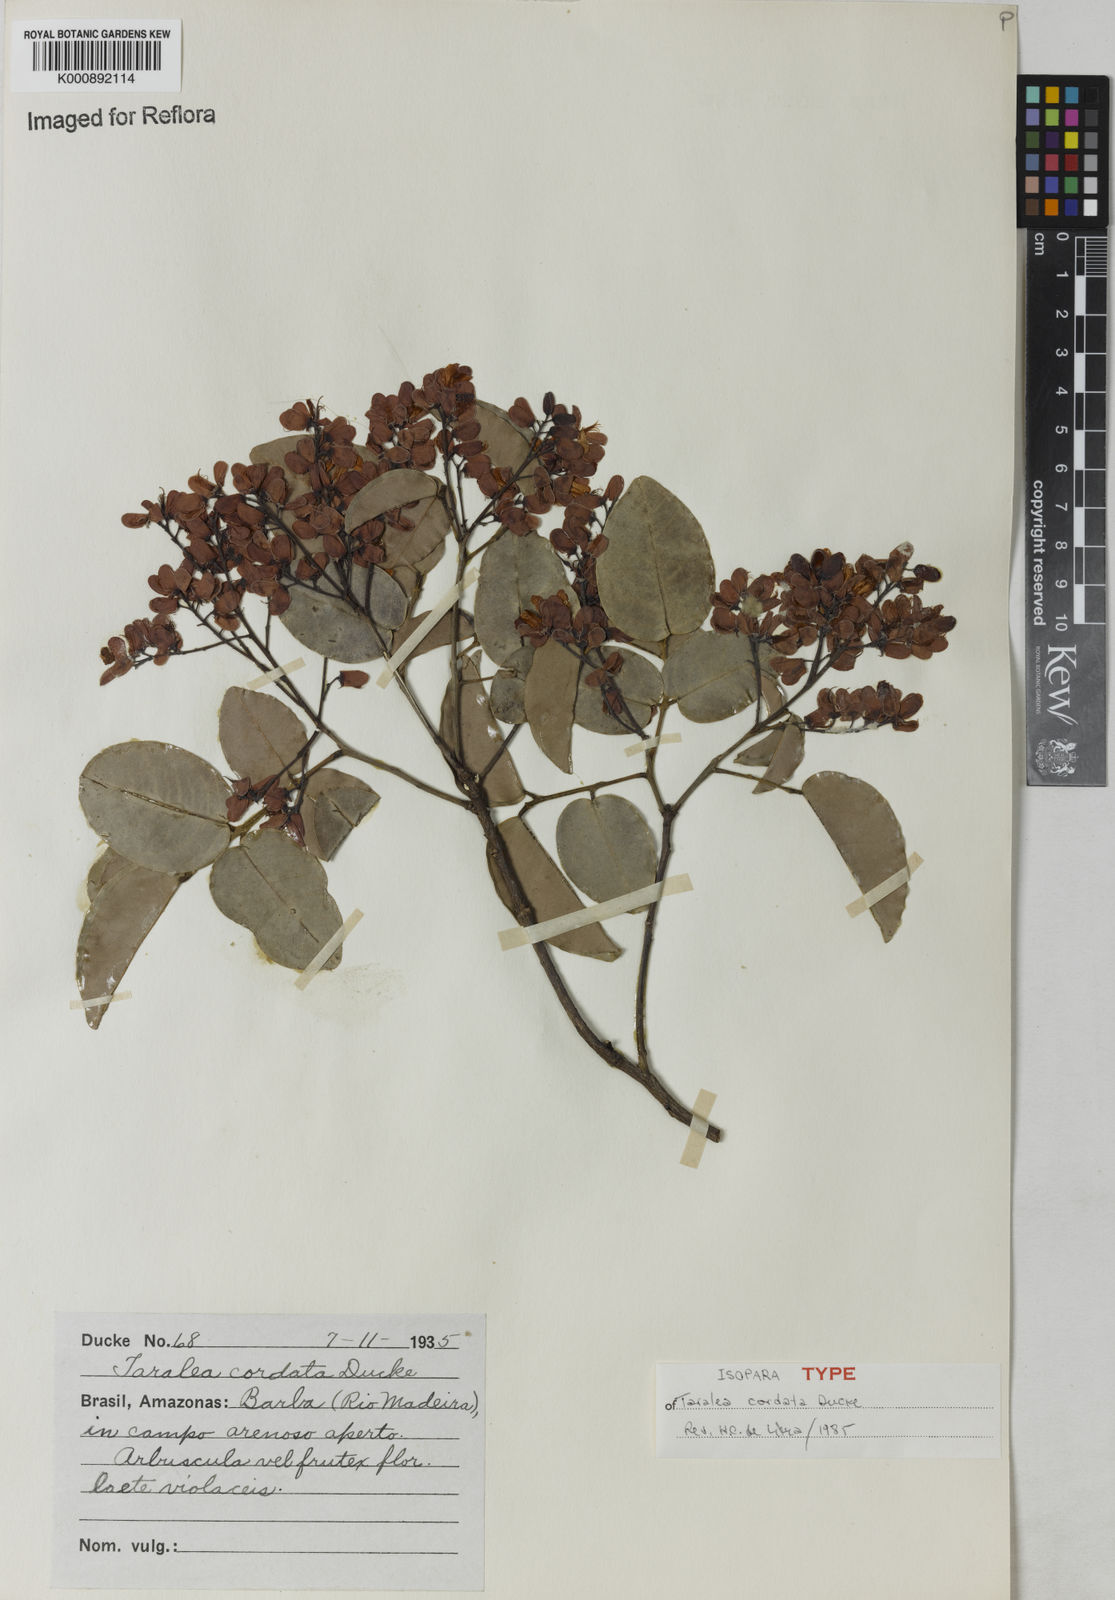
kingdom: Plantae
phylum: Tracheophyta
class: Magnoliopsida
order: Fabales
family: Fabaceae
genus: Taralea
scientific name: Taralea cordata
